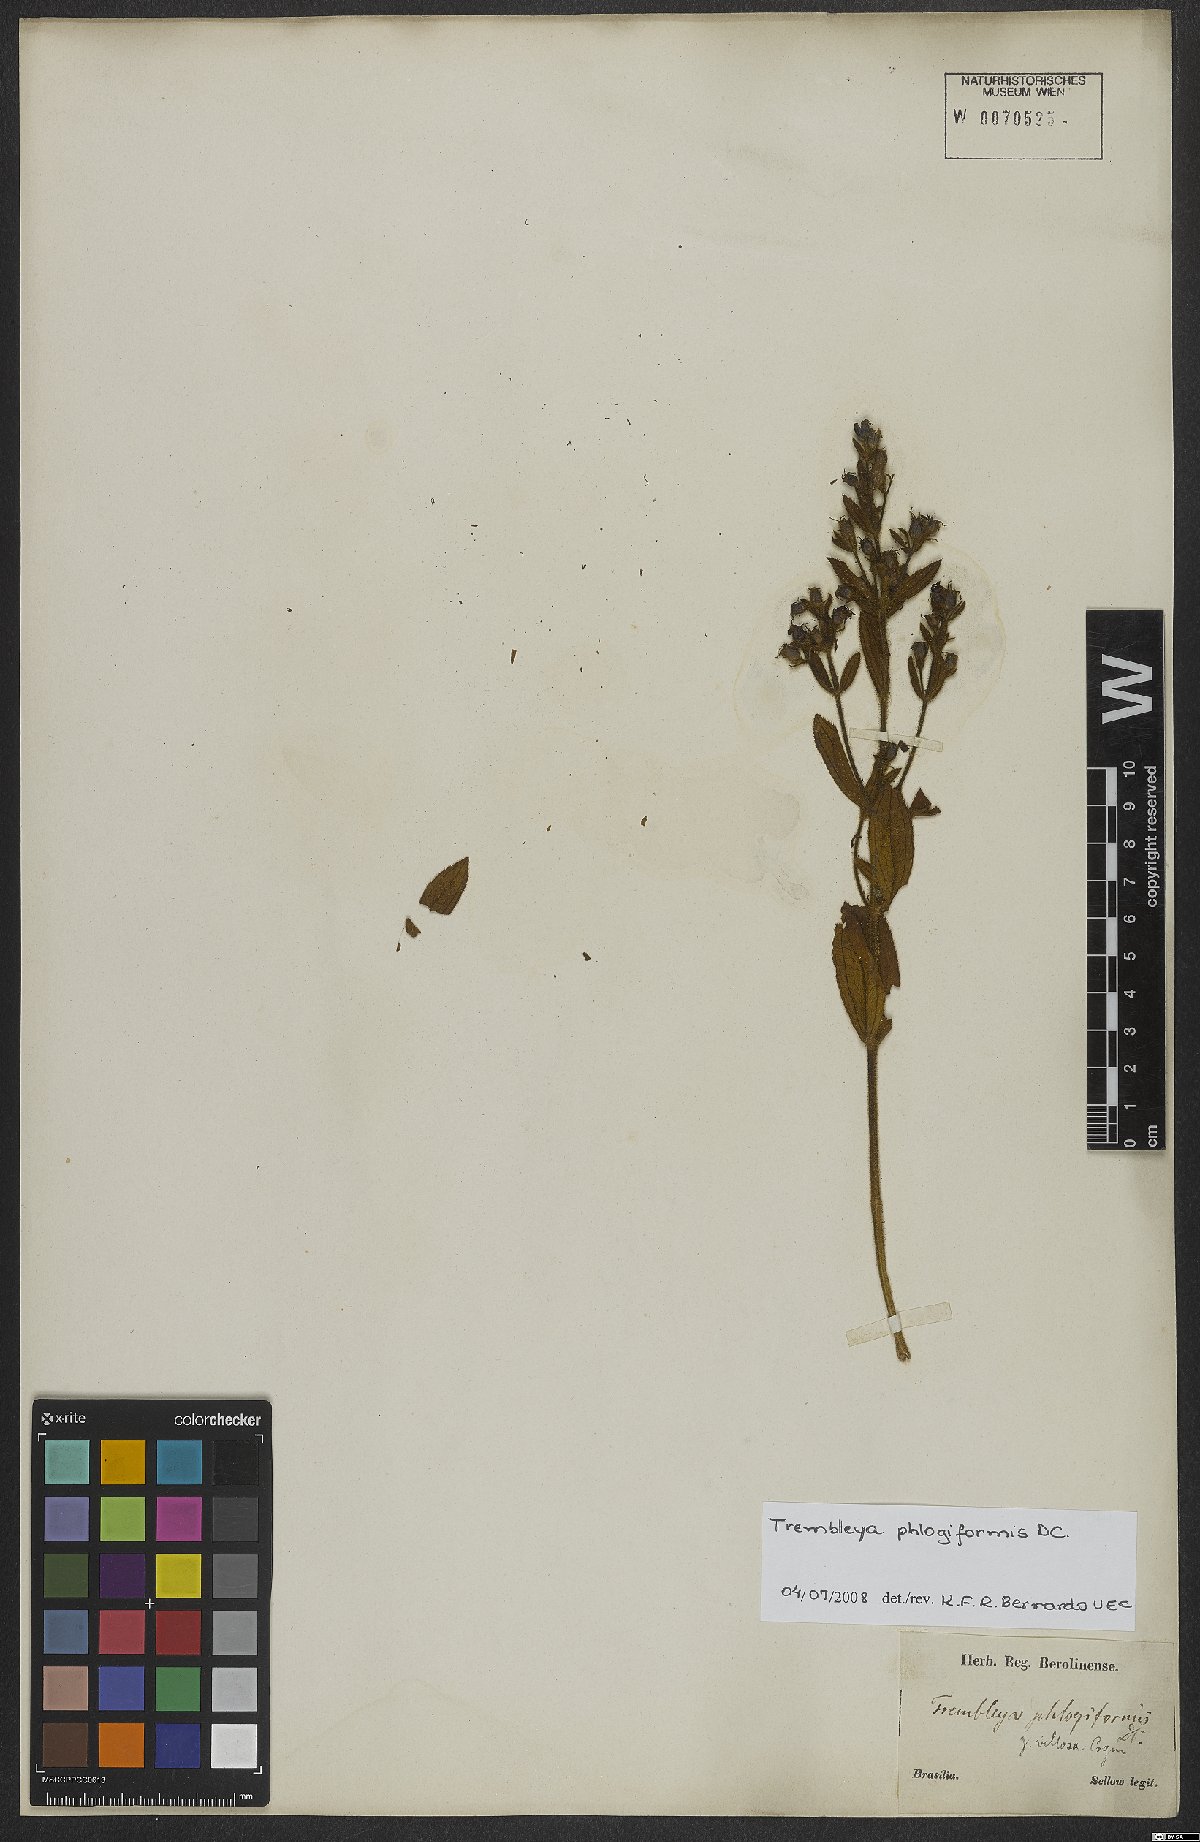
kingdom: Plantae
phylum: Tracheophyta
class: Magnoliopsida
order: Myrtales
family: Melastomataceae
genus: Microlicia
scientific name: Microlicia phlogiformis
